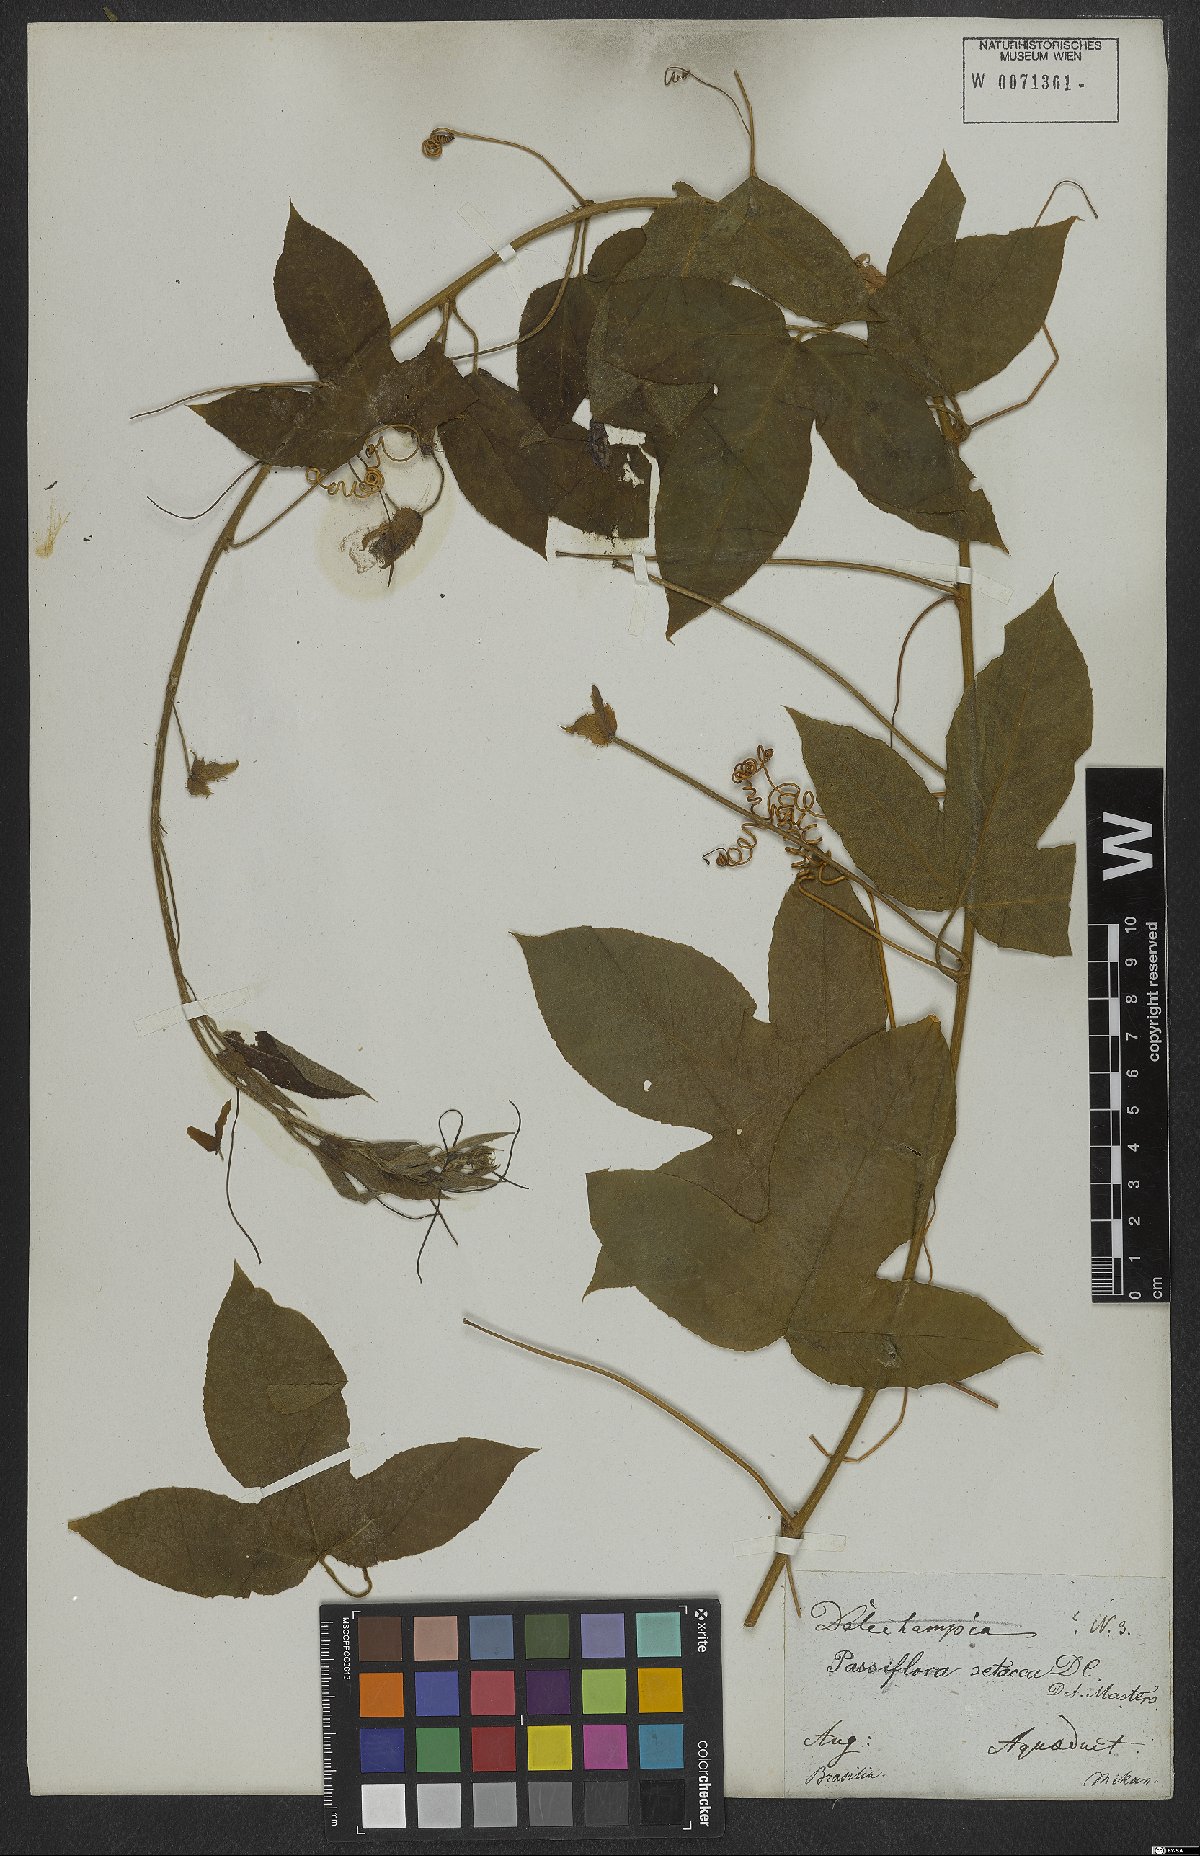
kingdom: Plantae
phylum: Tracheophyta
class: Magnoliopsida
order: Malpighiales
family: Passifloraceae
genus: Passiflora
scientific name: Passiflora setacea
